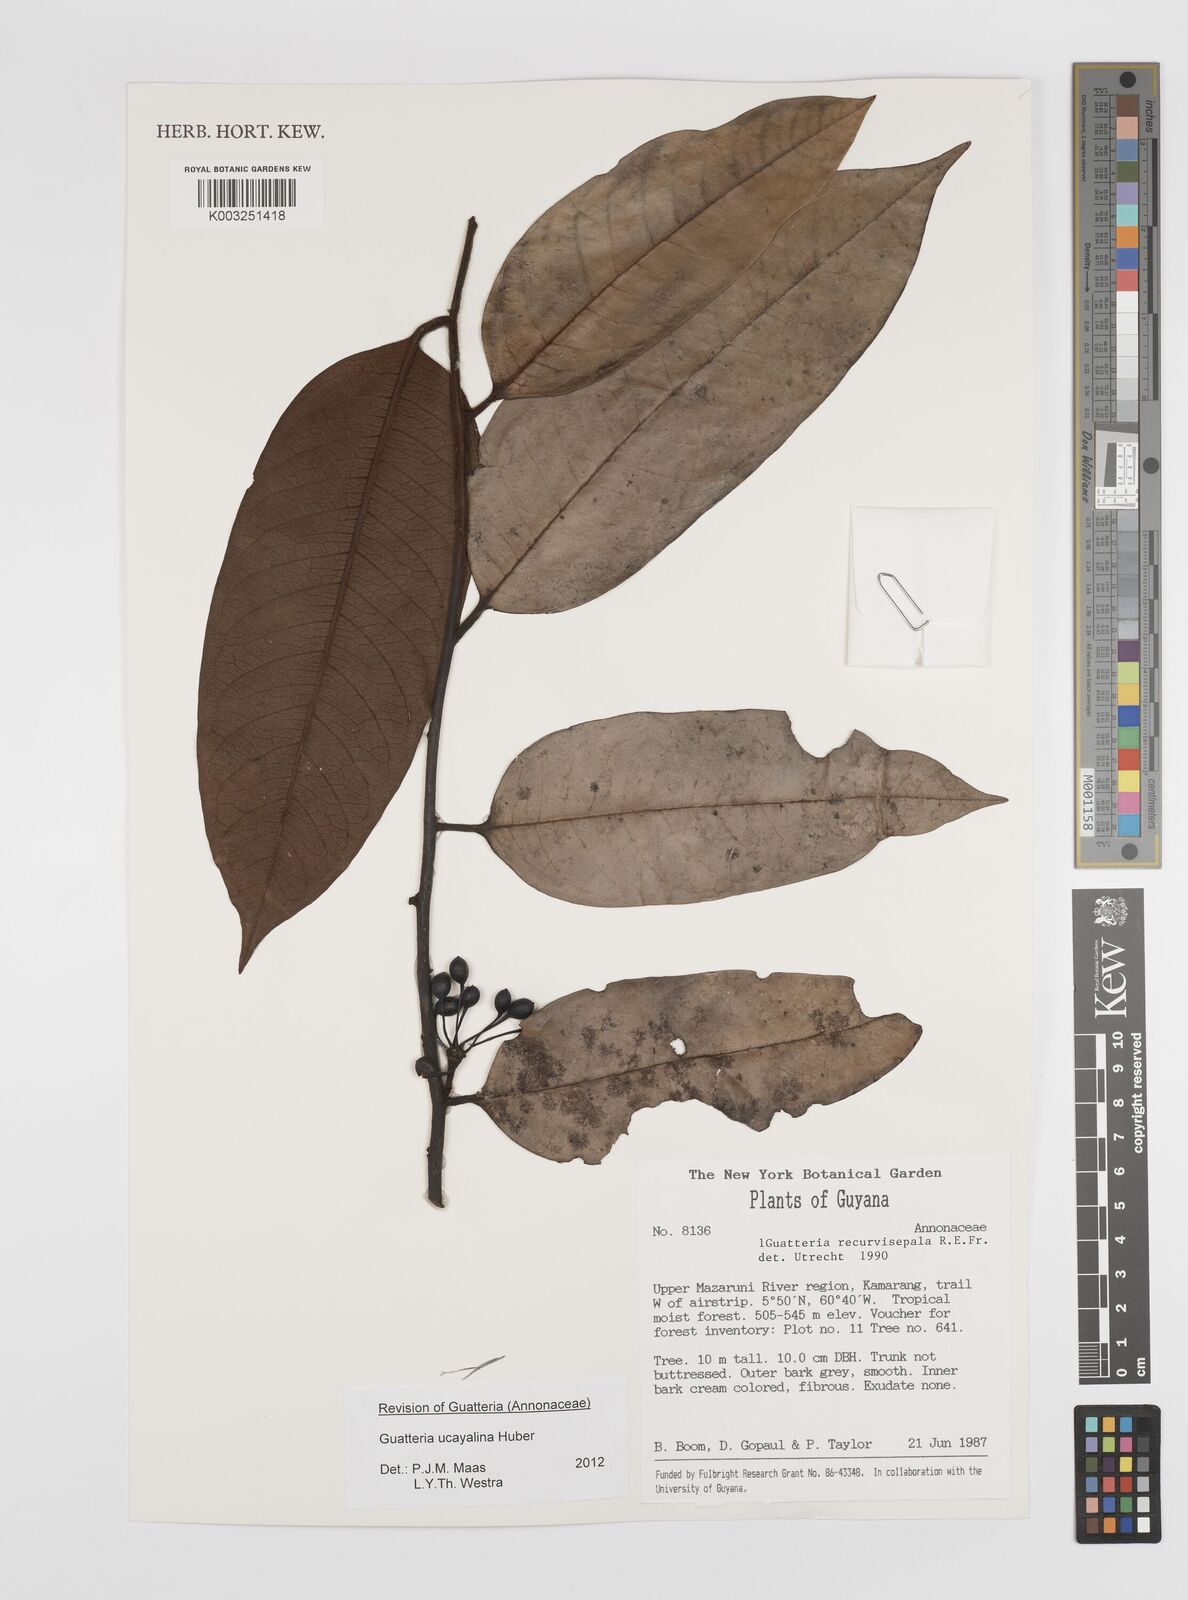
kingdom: Plantae
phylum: Tracheophyta
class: Magnoliopsida
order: Magnoliales
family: Annonaceae
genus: Guatteria
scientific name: Guatteria blepharophylla
